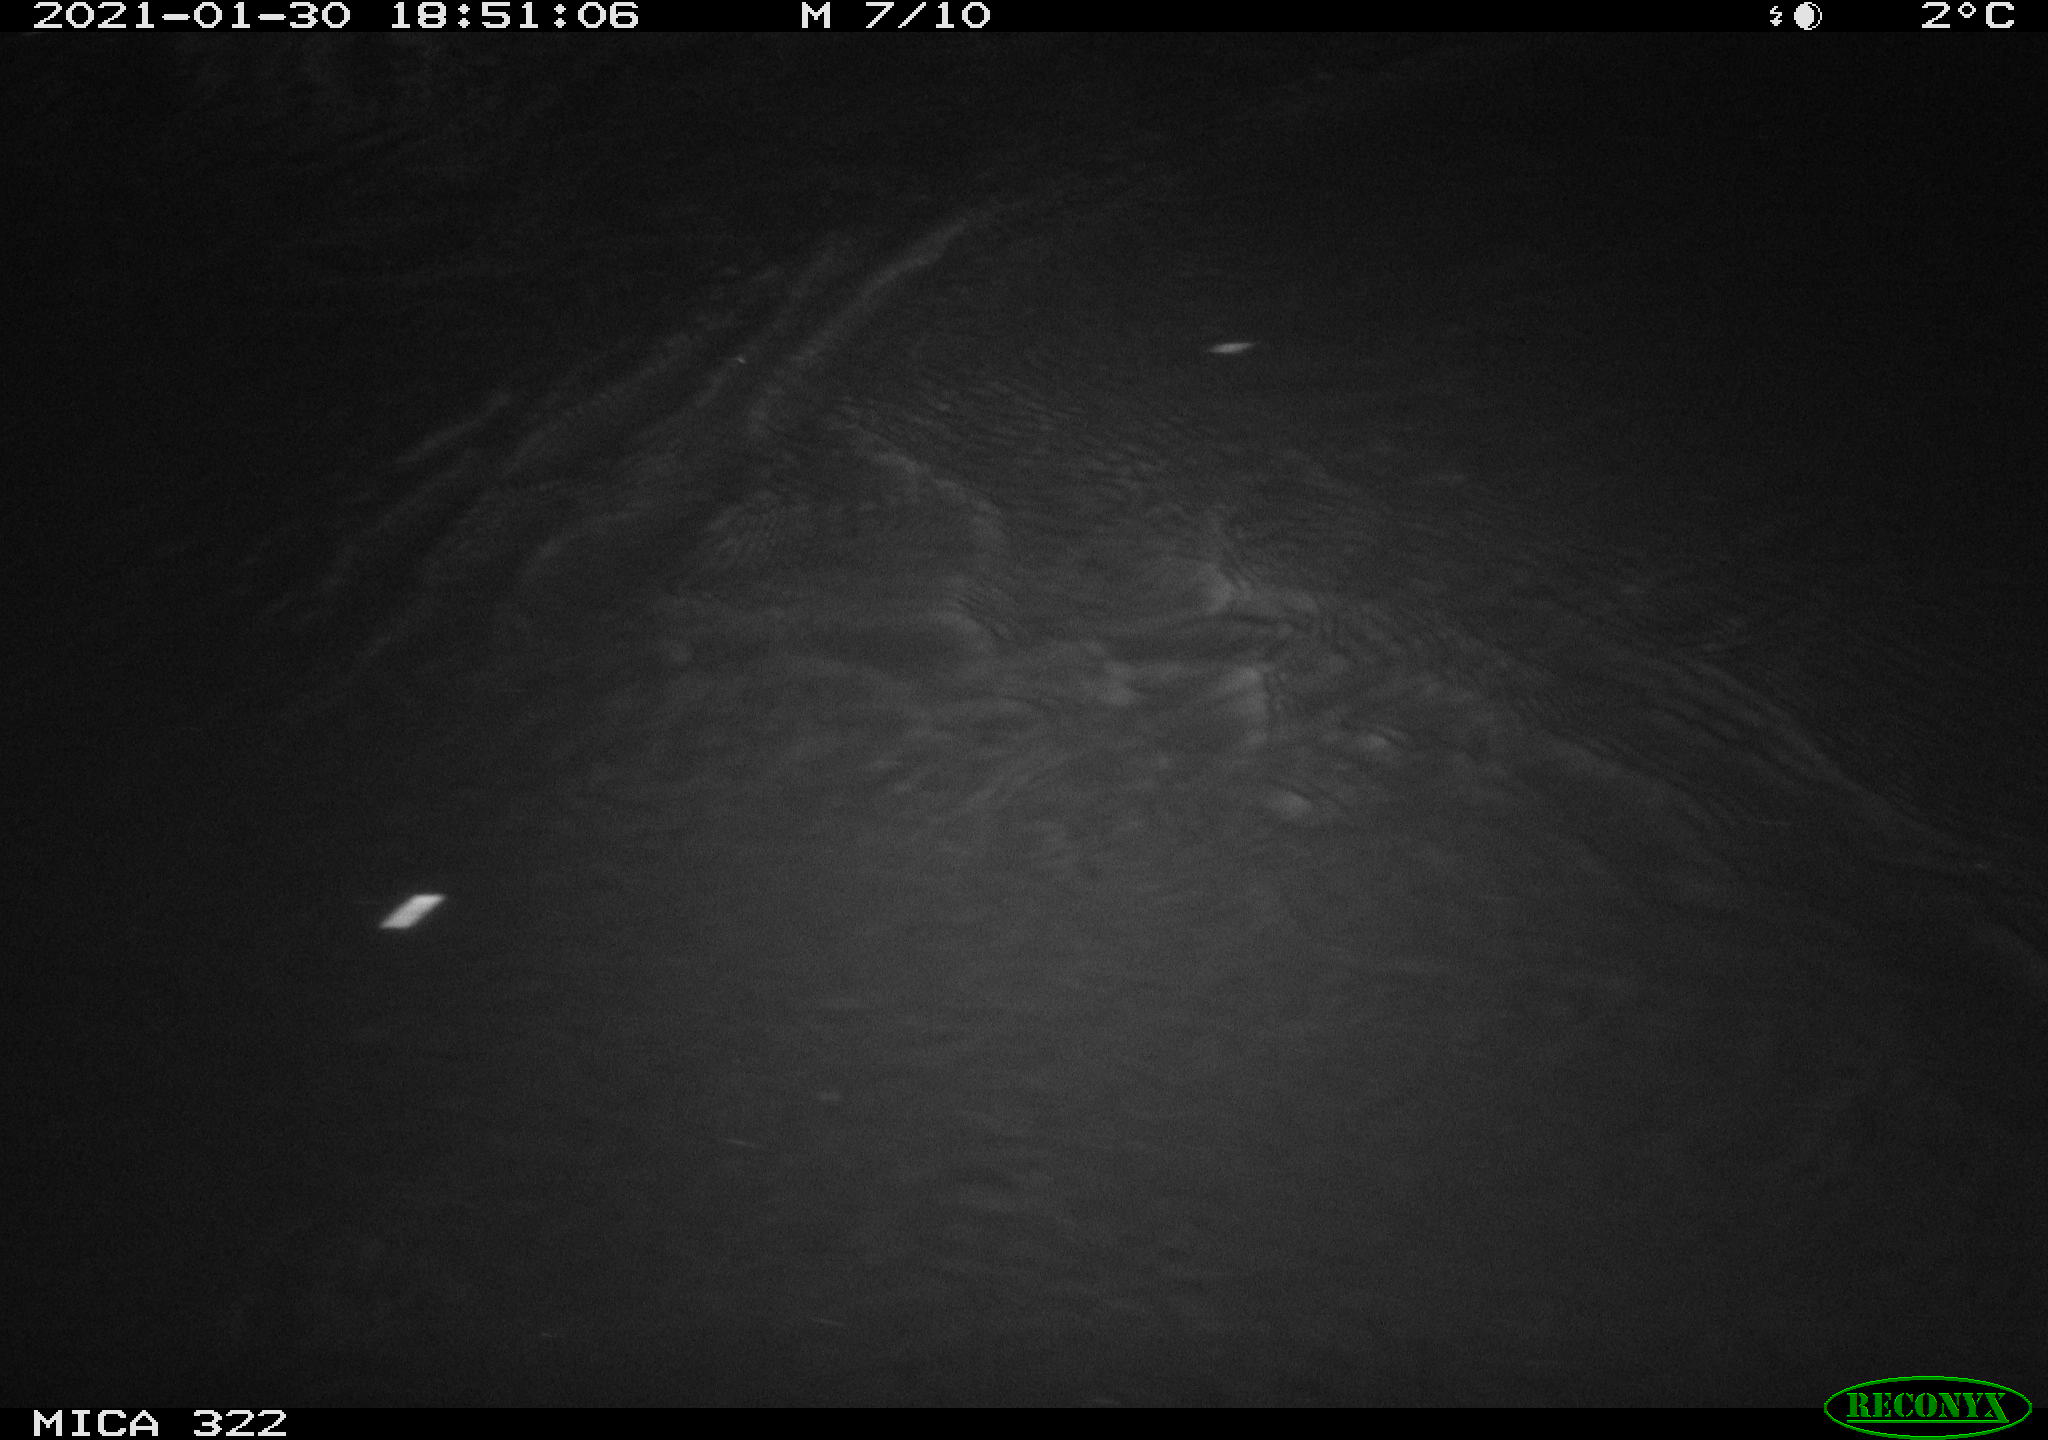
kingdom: Animalia
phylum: Chordata
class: Mammalia
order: Rodentia
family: Muridae
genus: Rattus
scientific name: Rattus norvegicus
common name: Brown rat
